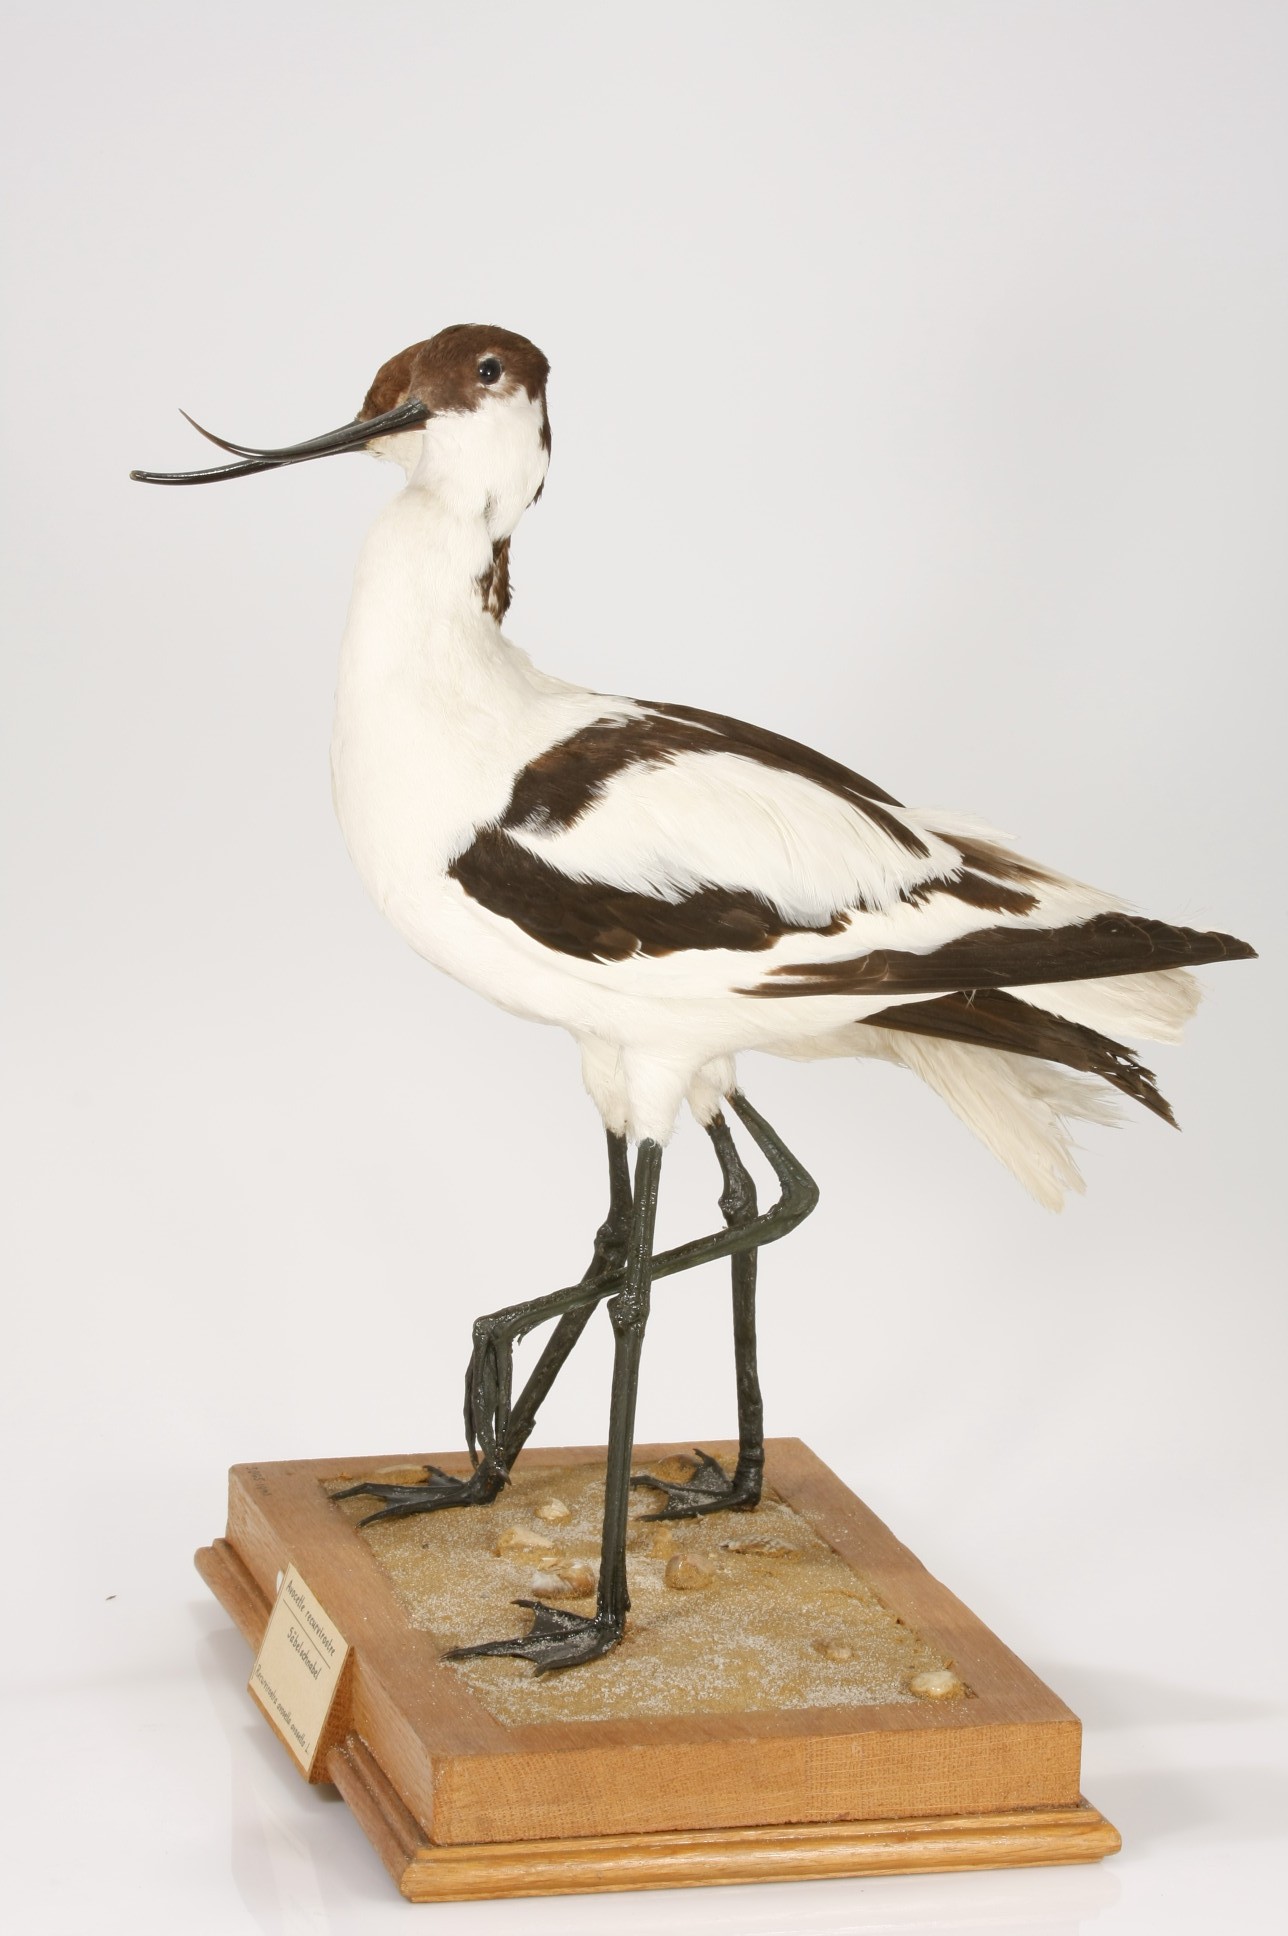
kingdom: Animalia
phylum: Chordata
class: Aves
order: Charadriiformes
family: Recurvirostridae
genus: Recurvirostra
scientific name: Recurvirostra avosetta
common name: Pied avocet
